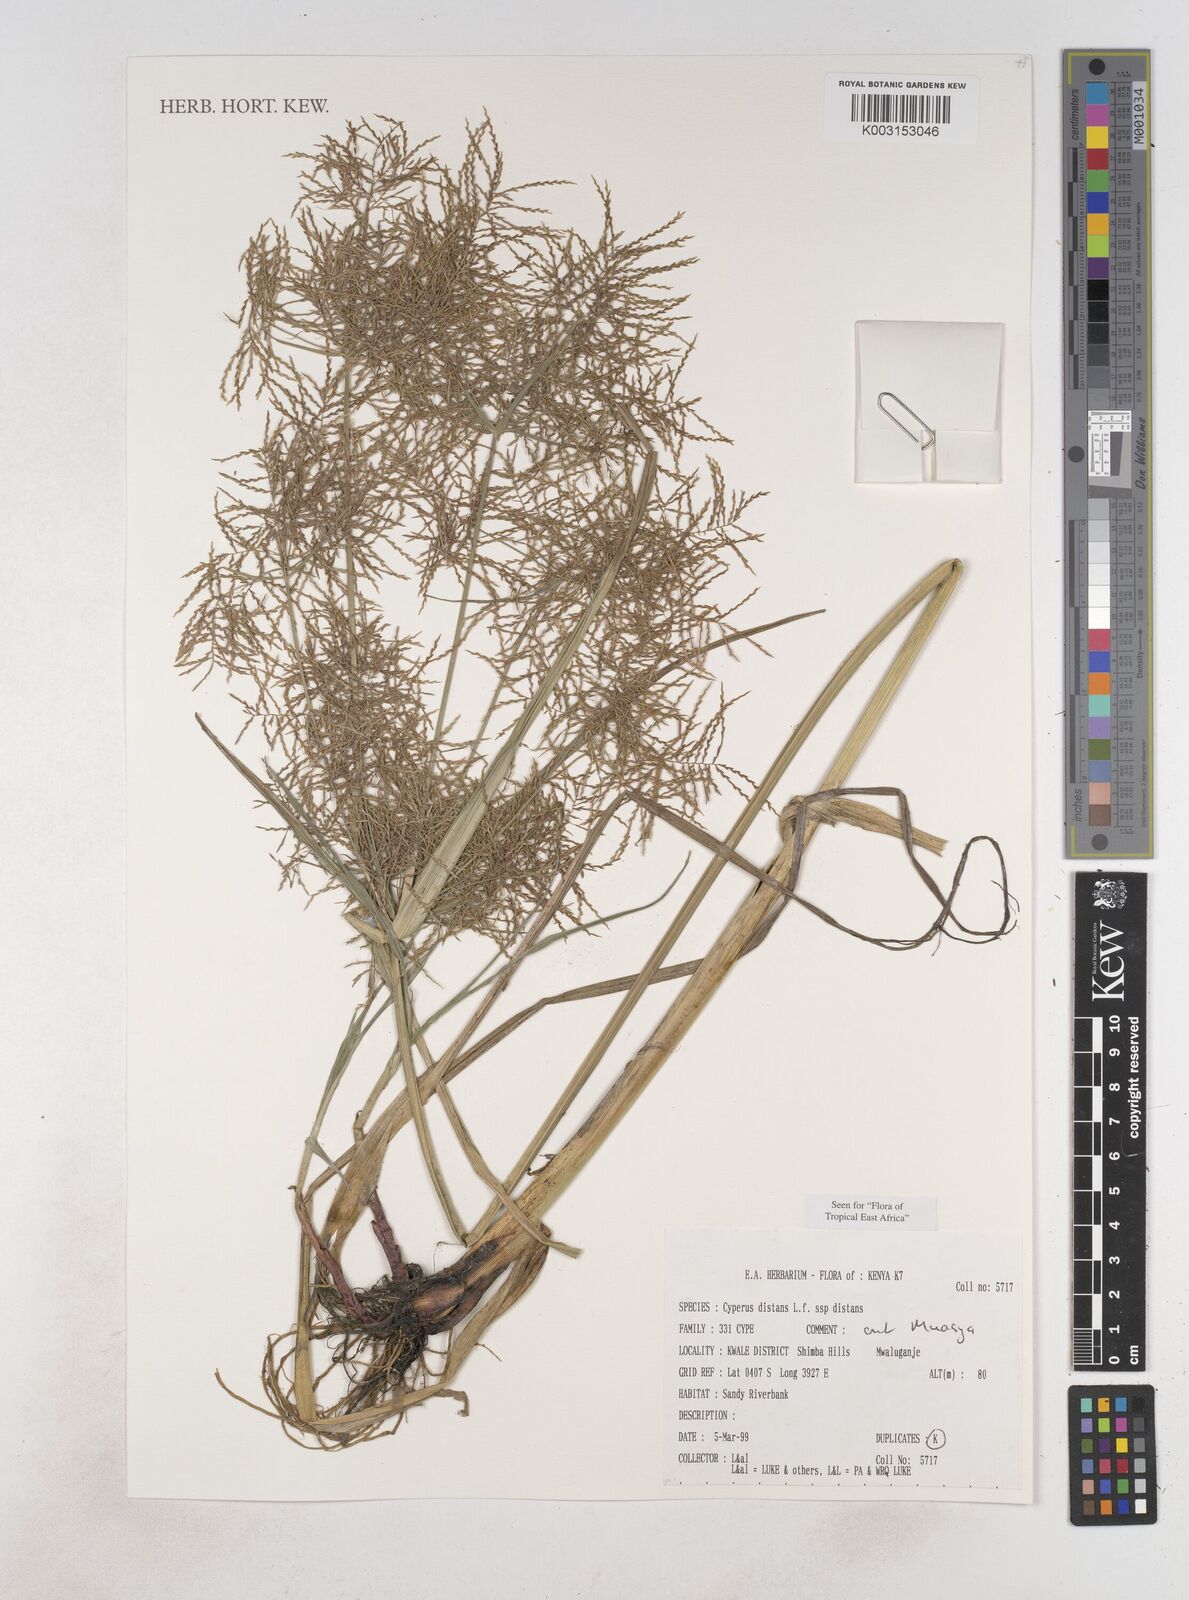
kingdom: Plantae
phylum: Tracheophyta
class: Liliopsida
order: Poales
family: Cyperaceae
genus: Cyperus
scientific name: Cyperus distans
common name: Slender cyperus
